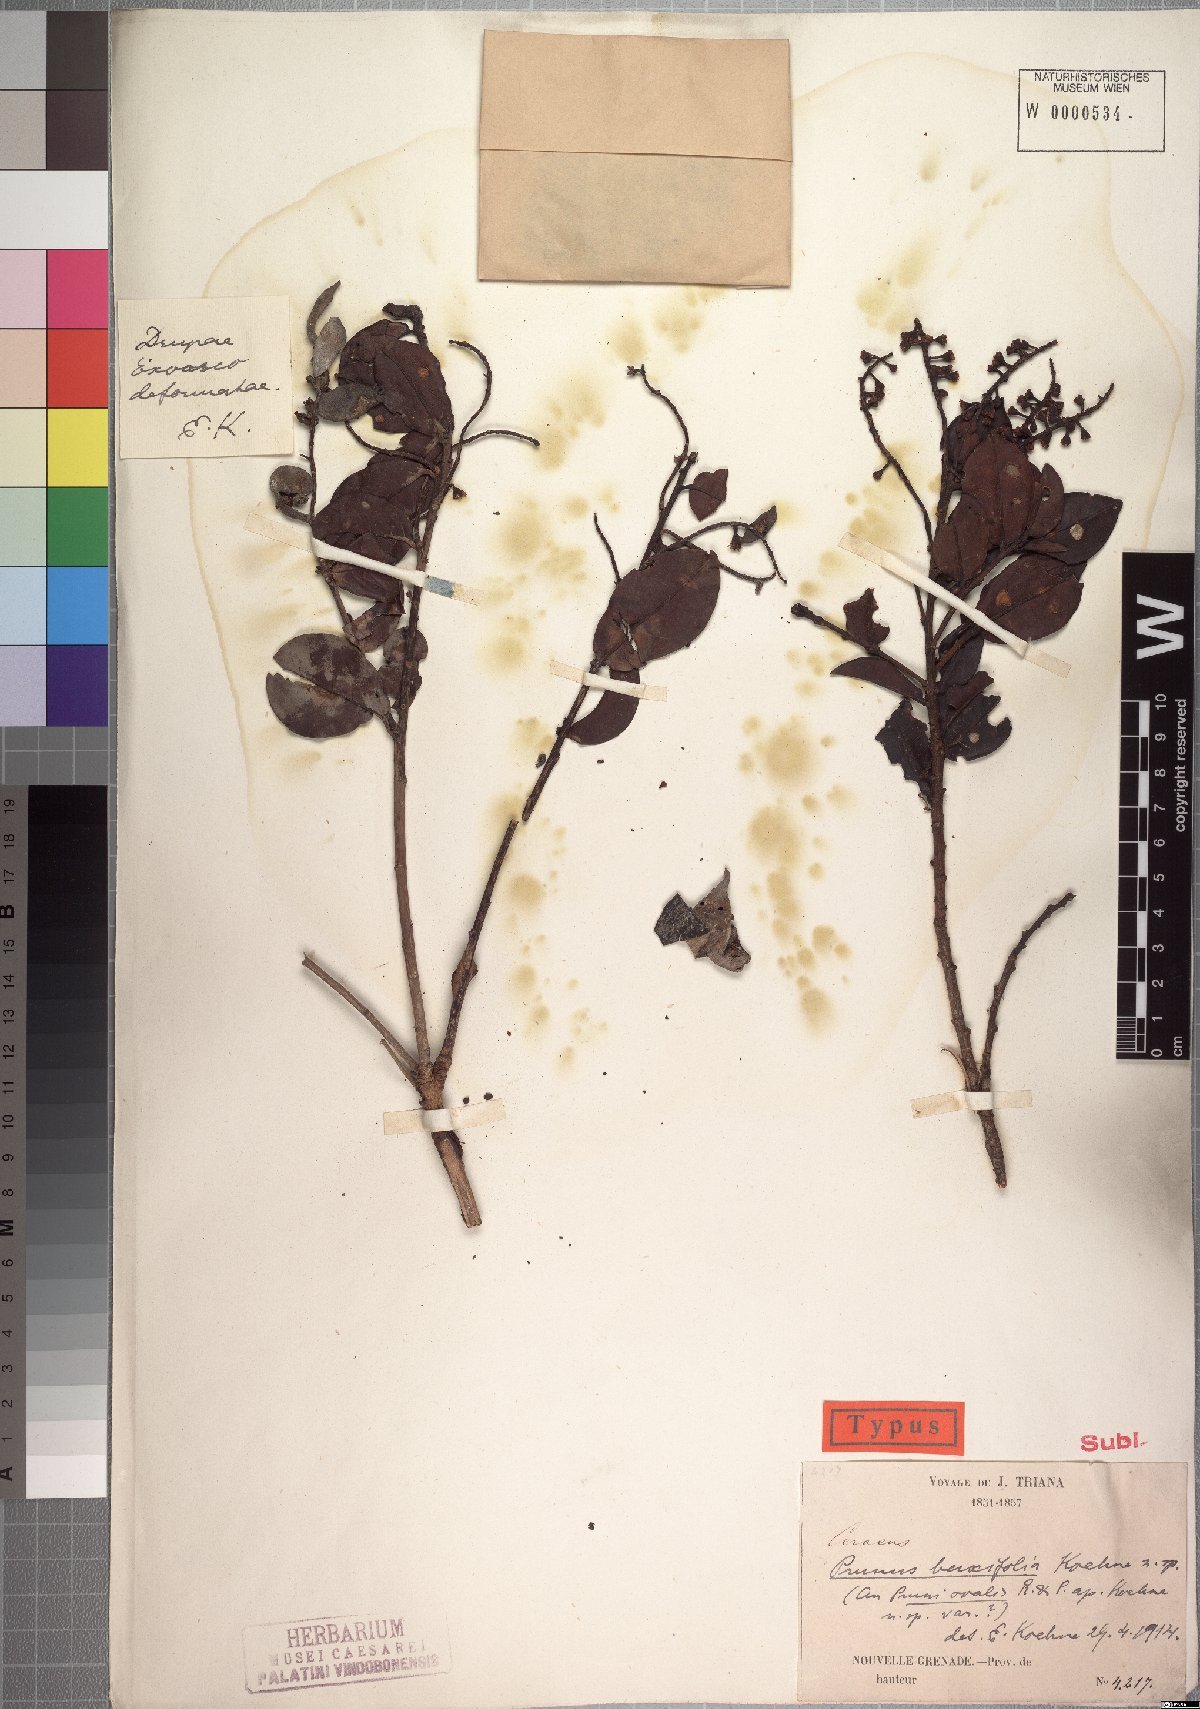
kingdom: Plantae
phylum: Tracheophyta
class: Magnoliopsida
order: Rosales
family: Rosaceae
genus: Prunus
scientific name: Prunus buxifolia
